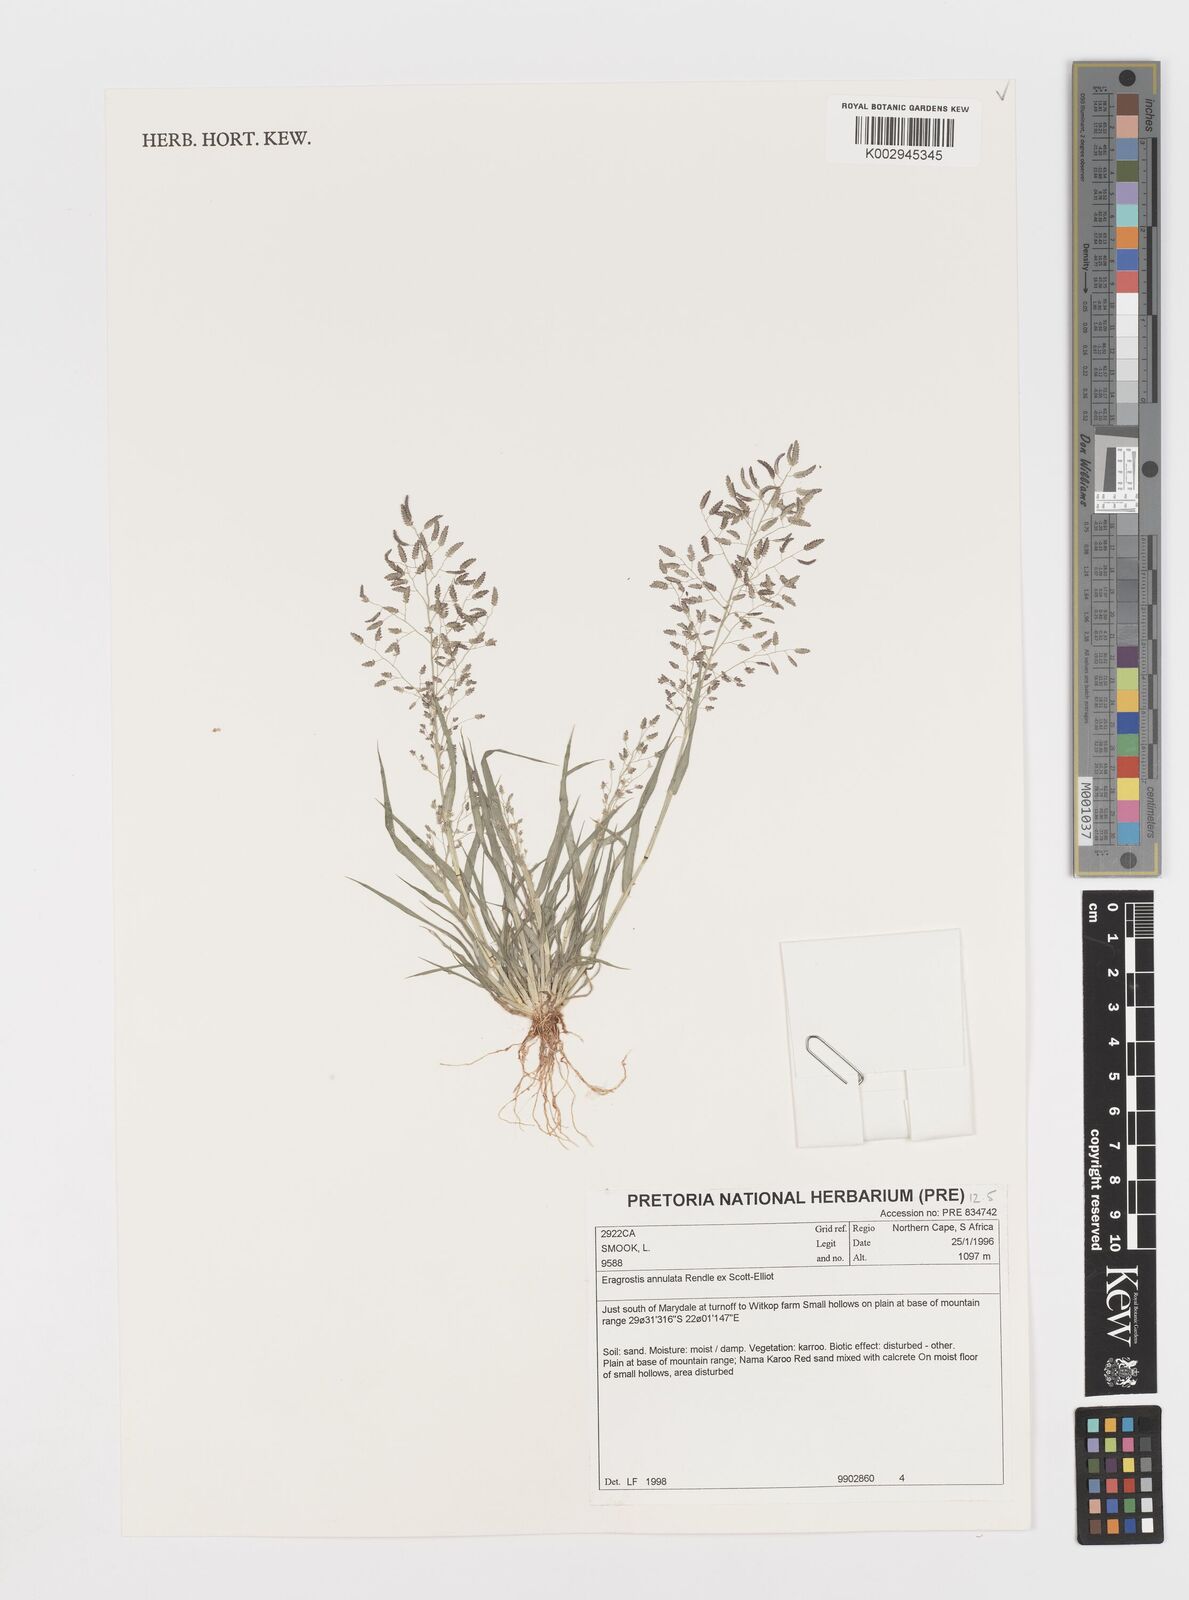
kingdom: Plantae
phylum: Tracheophyta
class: Liliopsida
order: Poales
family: Poaceae
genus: Eragrostis
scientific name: Eragrostis annulata
